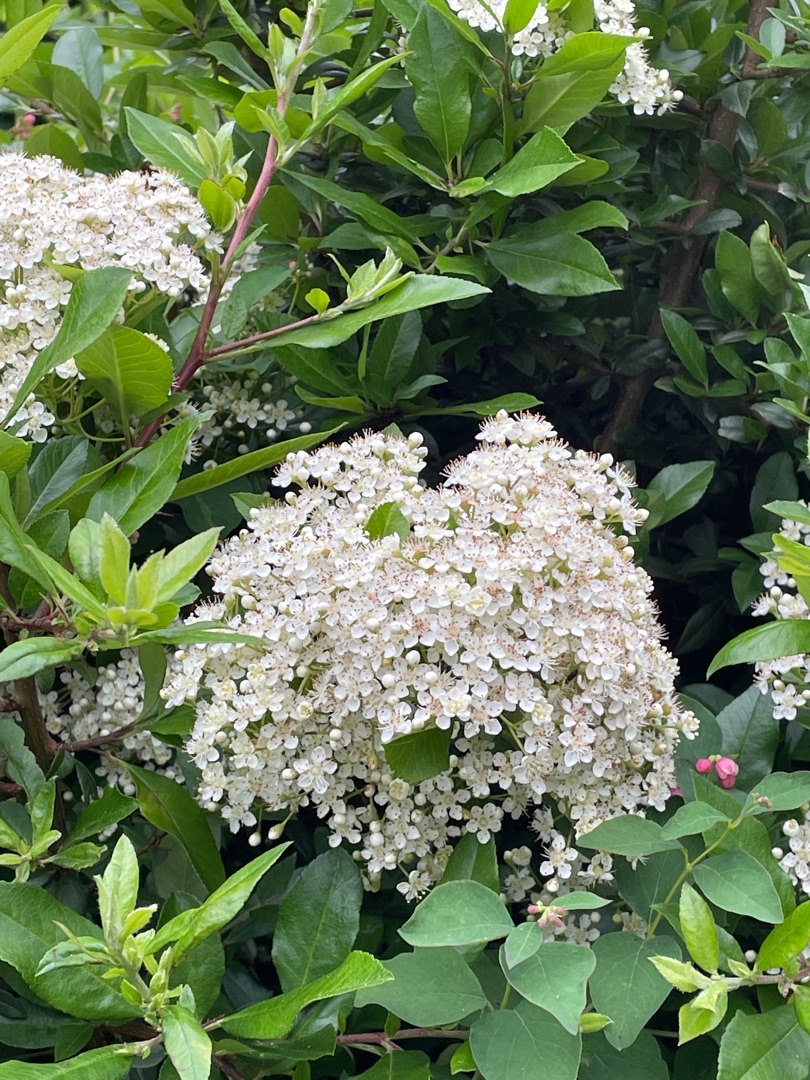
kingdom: Plantae
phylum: Tracheophyta
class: Magnoliopsida
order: Dipsacales
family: Viburnaceae
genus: Sambucus
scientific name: Sambucus nigra
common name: Almindelig hyld
